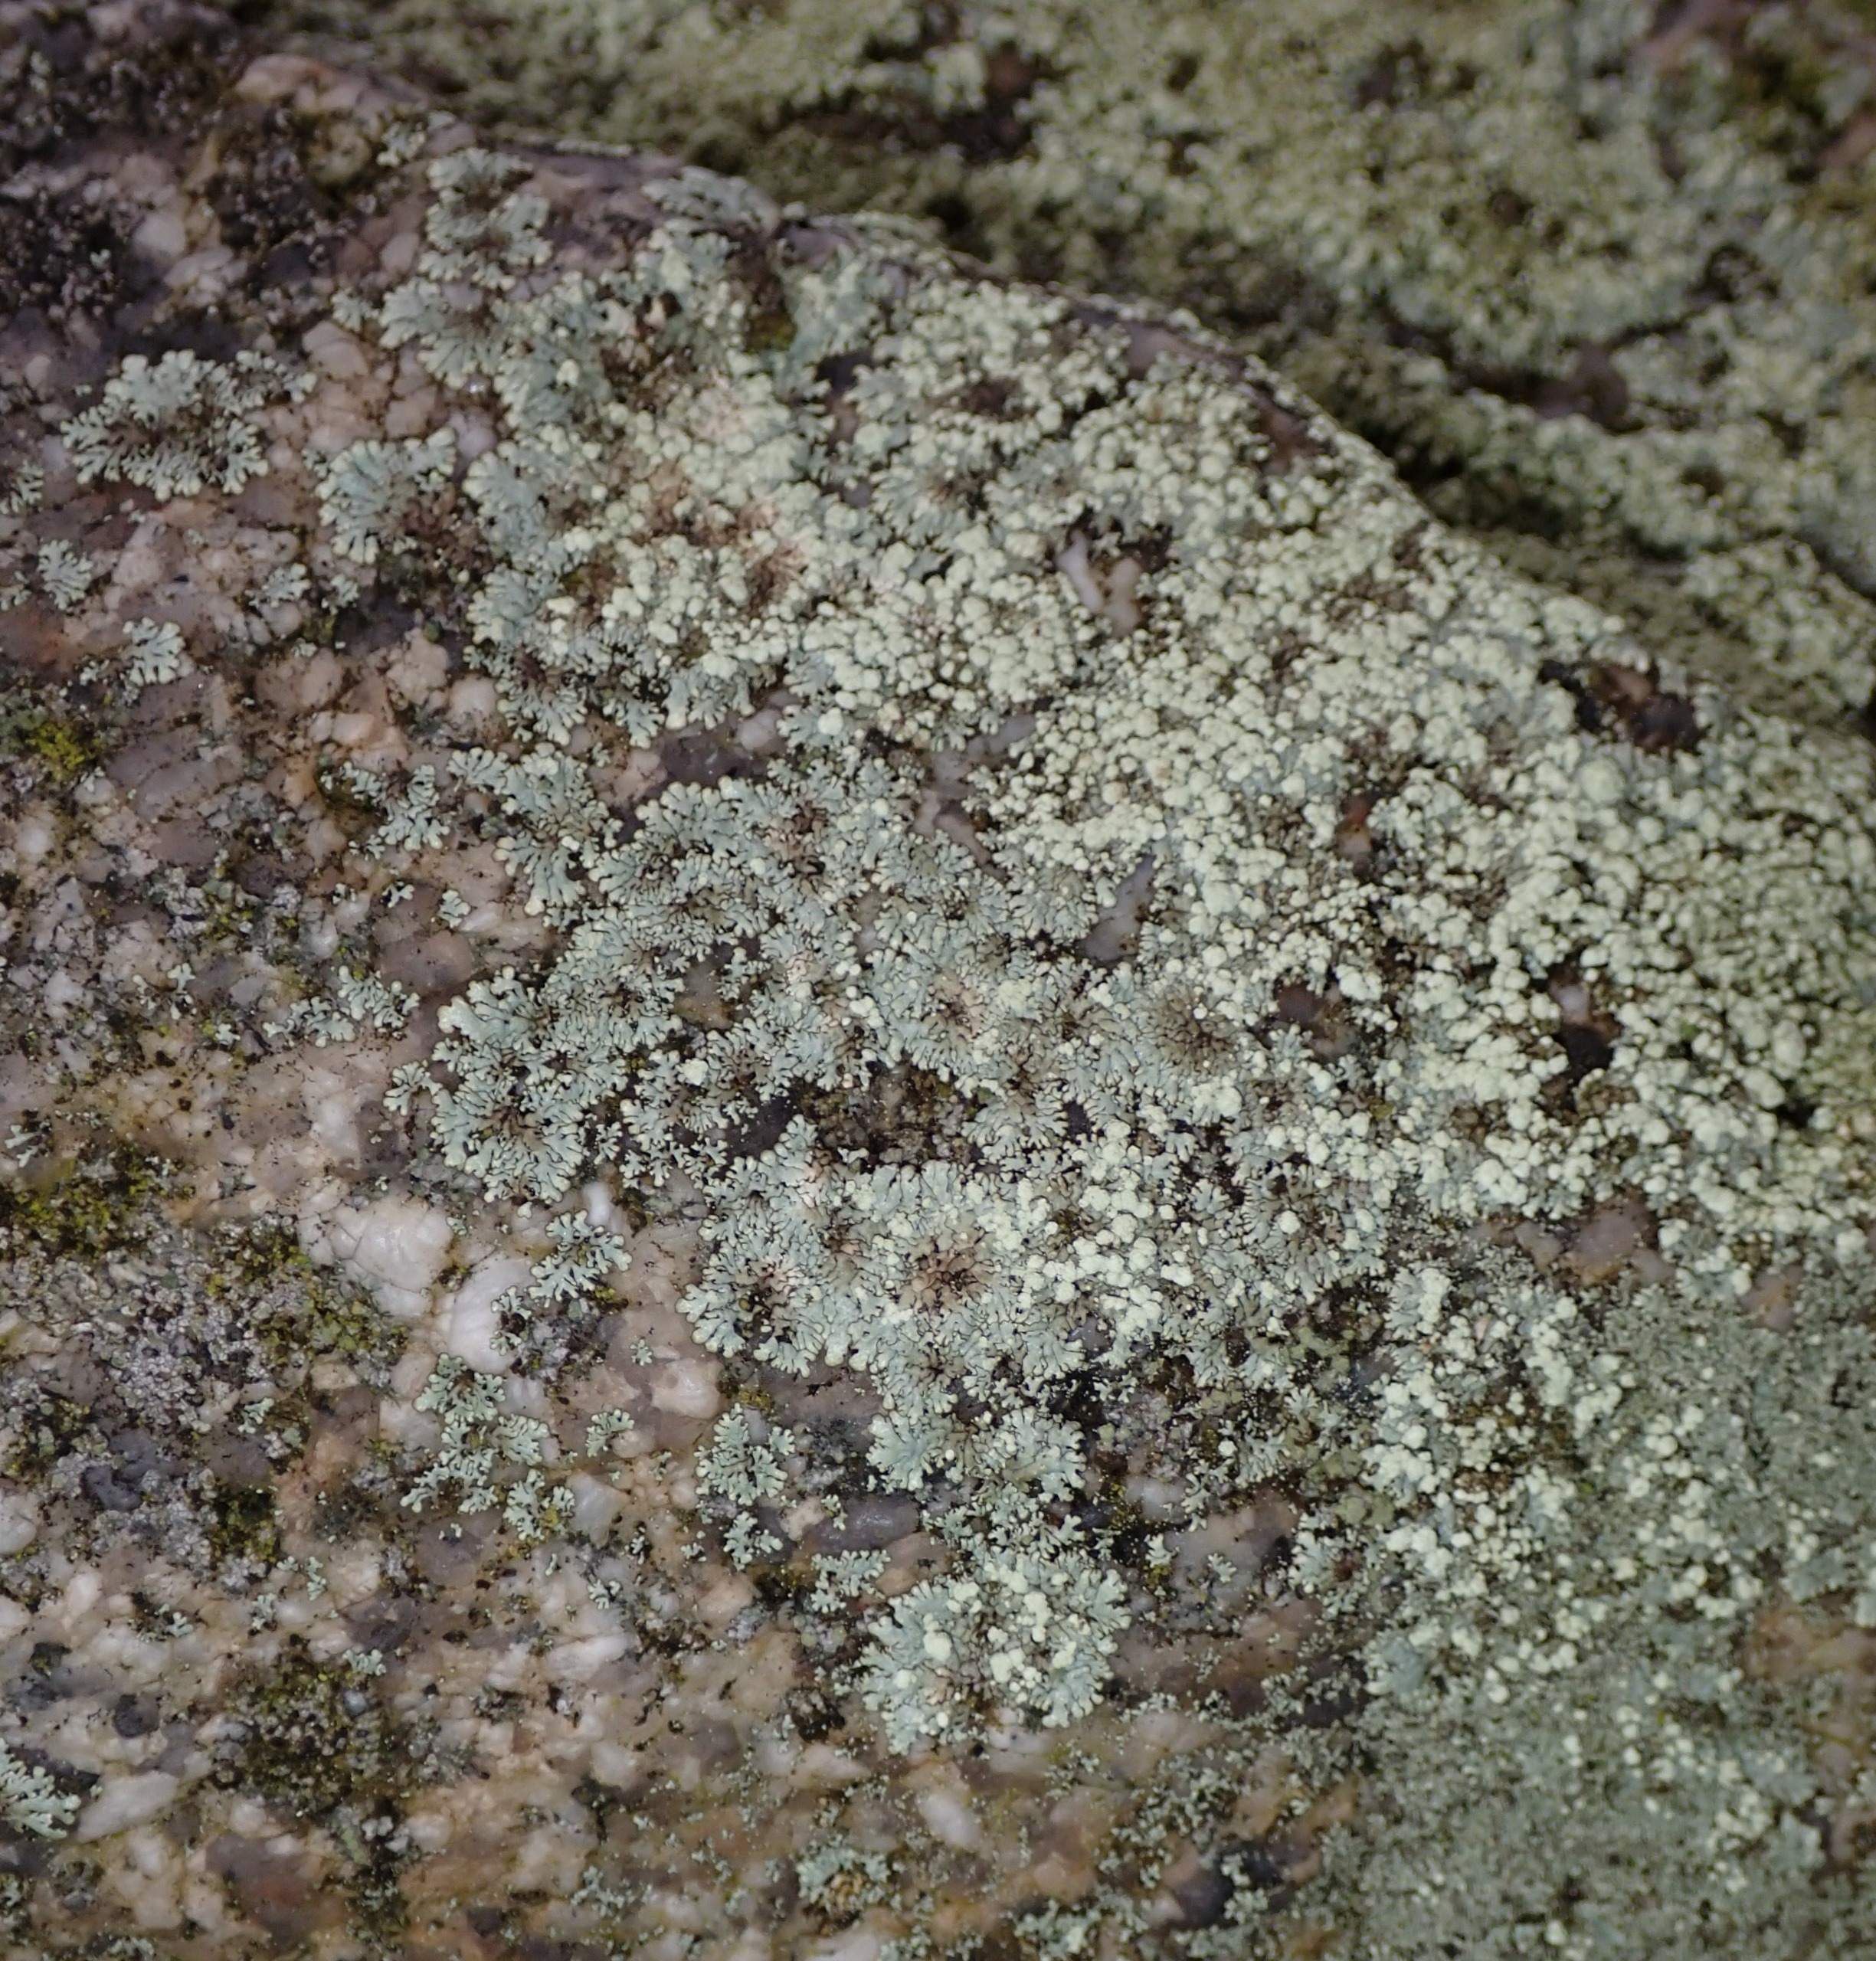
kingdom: Fungi
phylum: Ascomycota
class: Lecanoromycetes
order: Lecanorales
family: Parmeliaceae
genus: Xanthoparmelia
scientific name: Xanthoparmelia mougeotii
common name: Liden skållav
